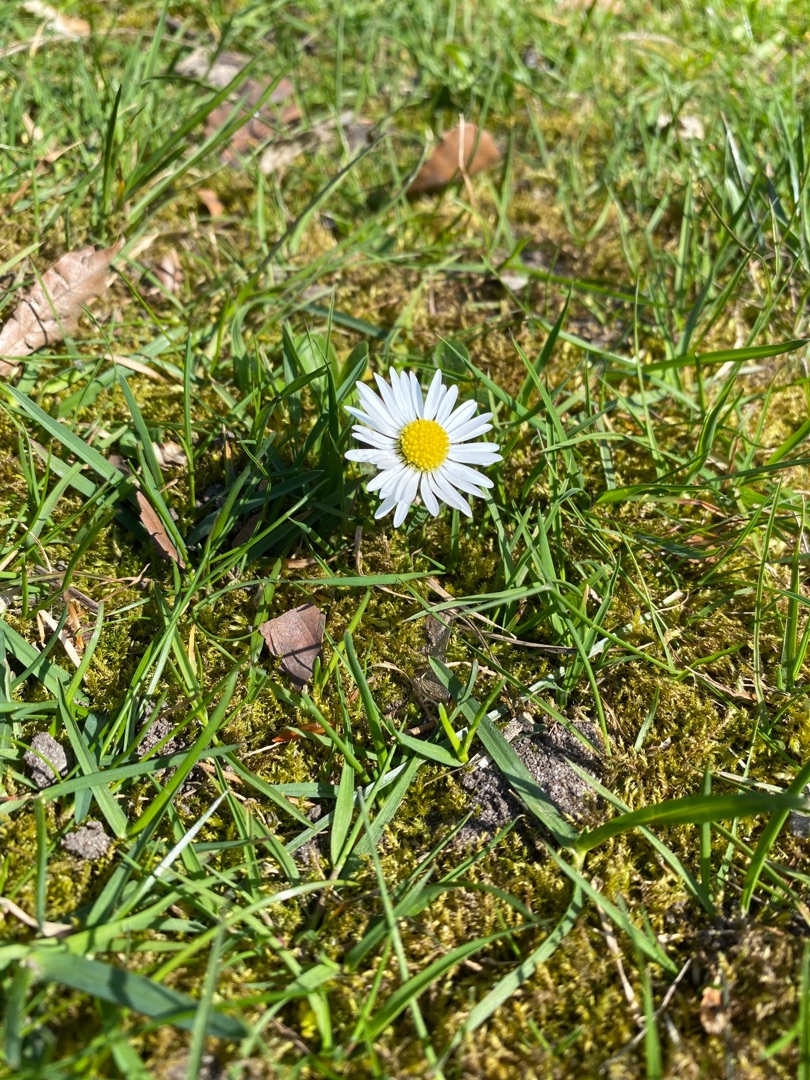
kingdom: Plantae
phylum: Tracheophyta
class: Magnoliopsida
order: Asterales
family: Asteraceae
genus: Bellis
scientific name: Bellis perennis
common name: Tusindfryd
